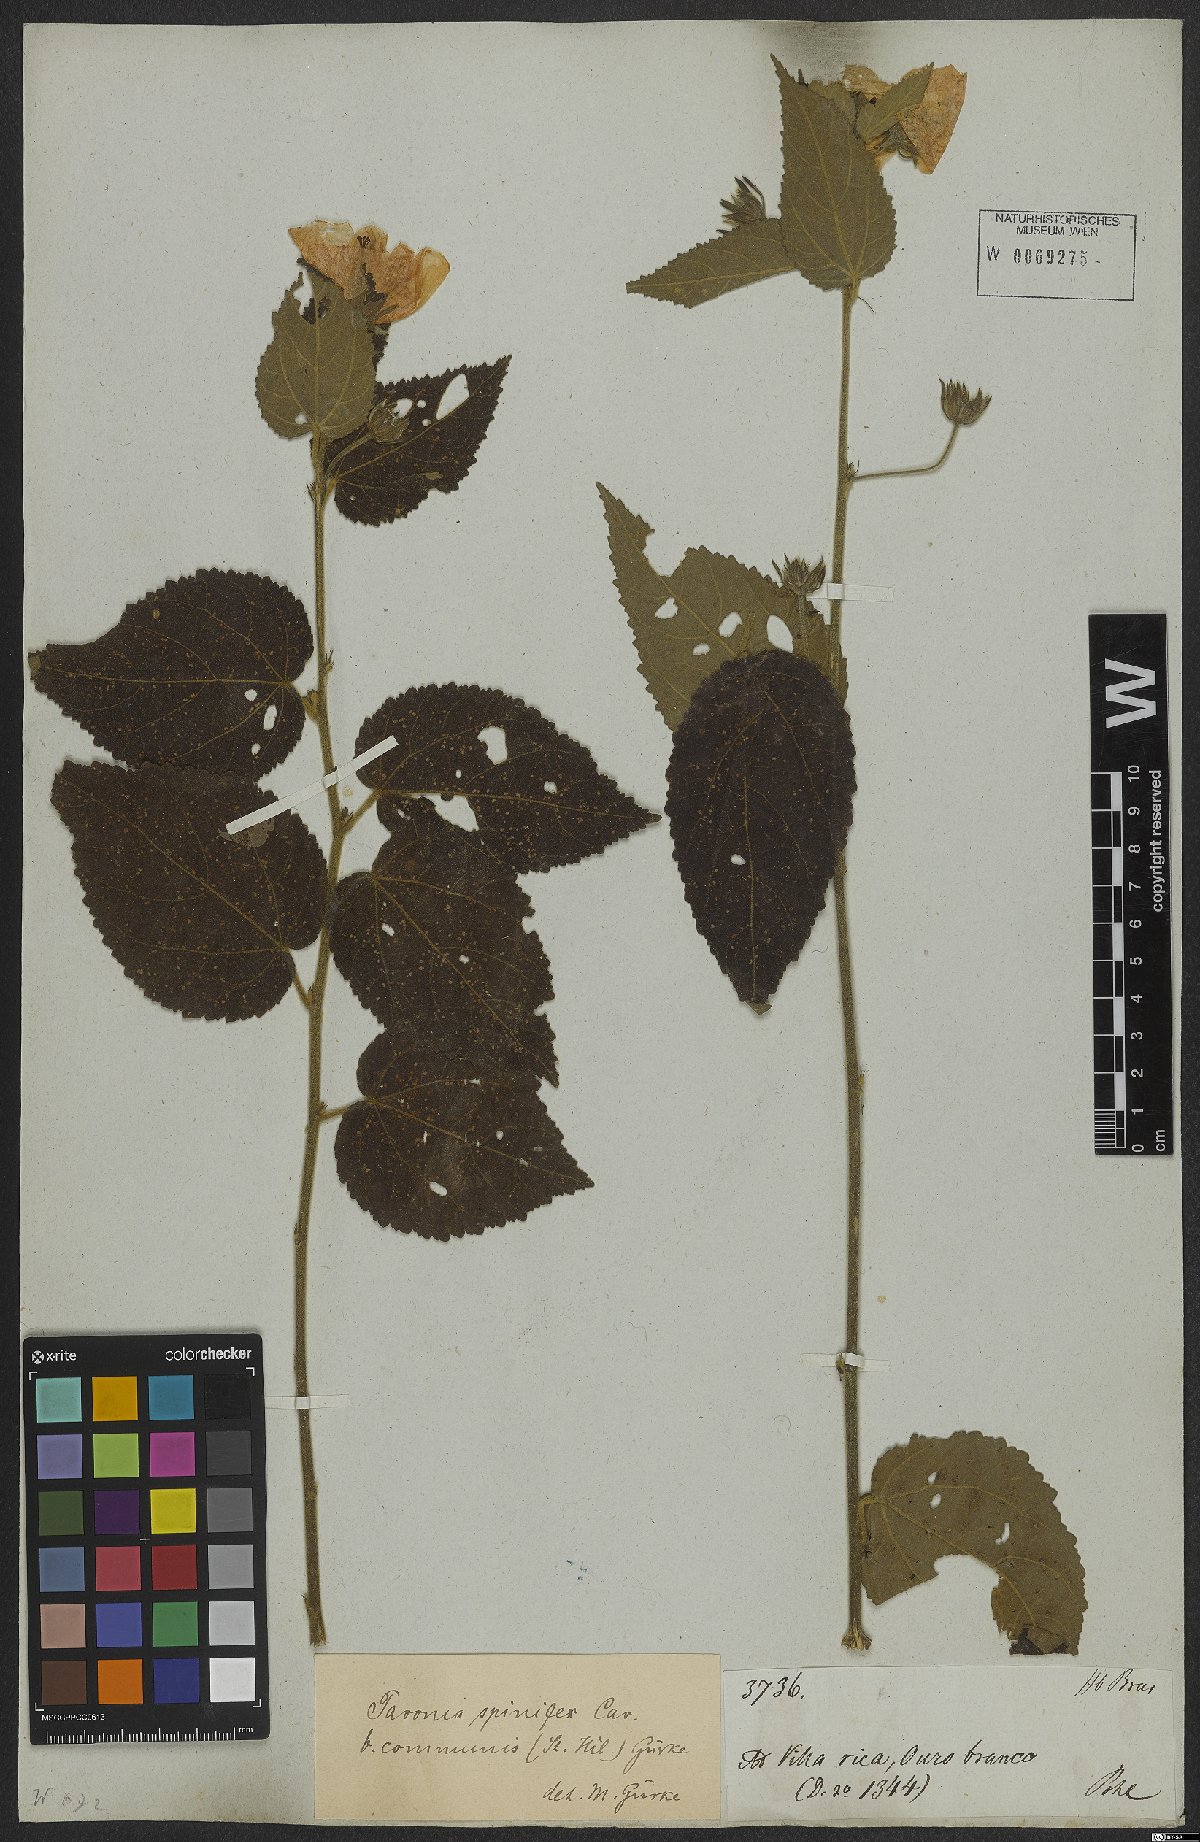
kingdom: Plantae
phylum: Tracheophyta
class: Magnoliopsida
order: Malvales
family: Malvaceae
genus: Pavonia
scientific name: Pavonia communis
